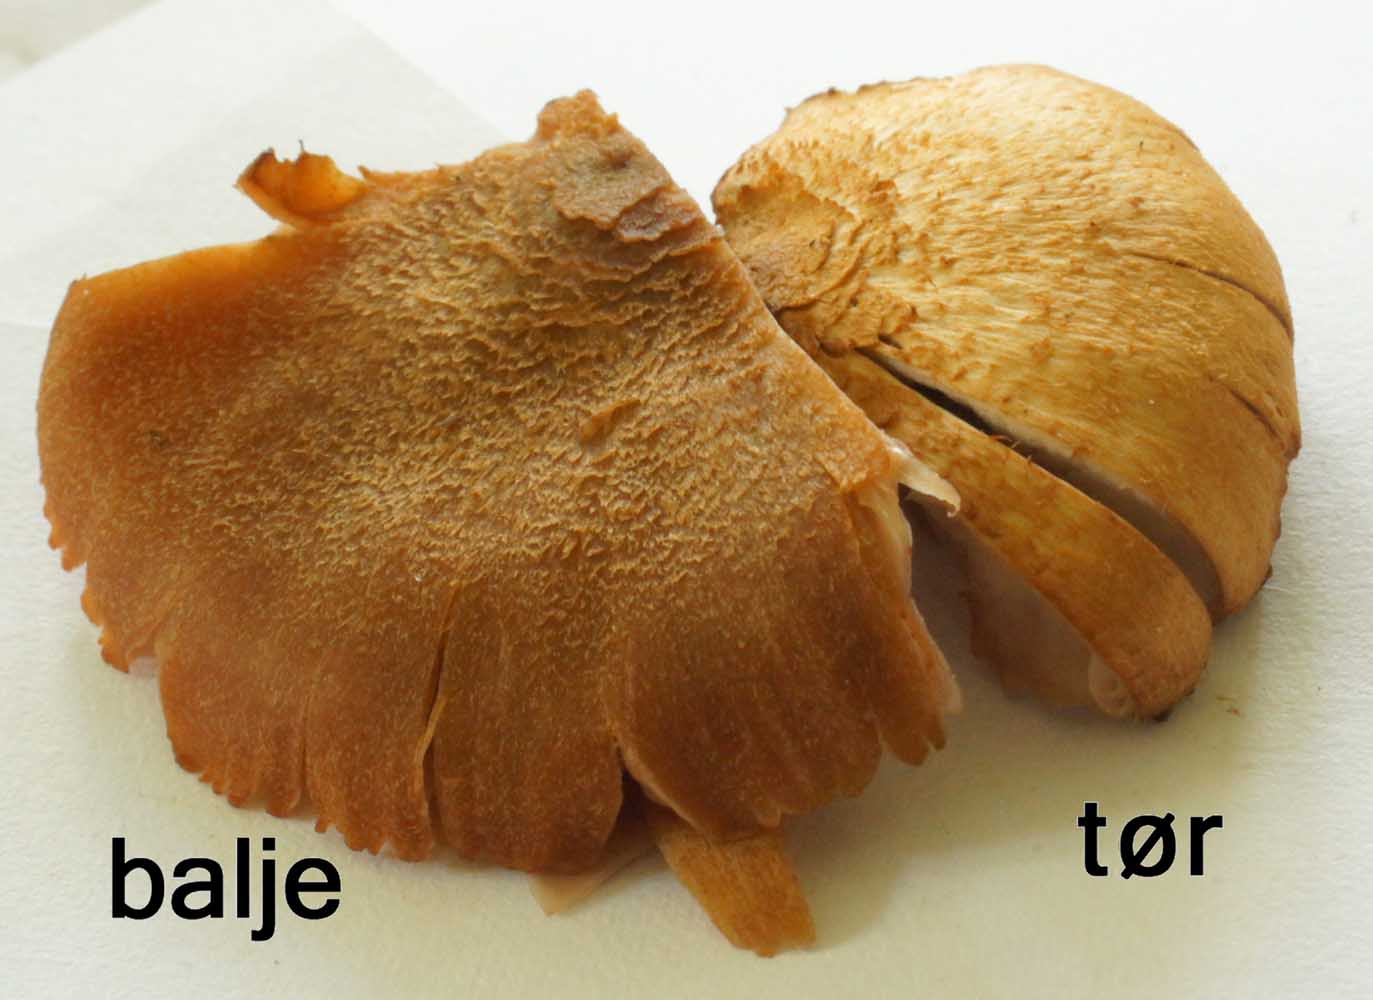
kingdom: Fungi
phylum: Basidiomycota
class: Agaricomycetes
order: Agaricales
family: Hydnangiaceae
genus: Laccaria
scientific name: Laccaria proxima
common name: stor ametysthat
